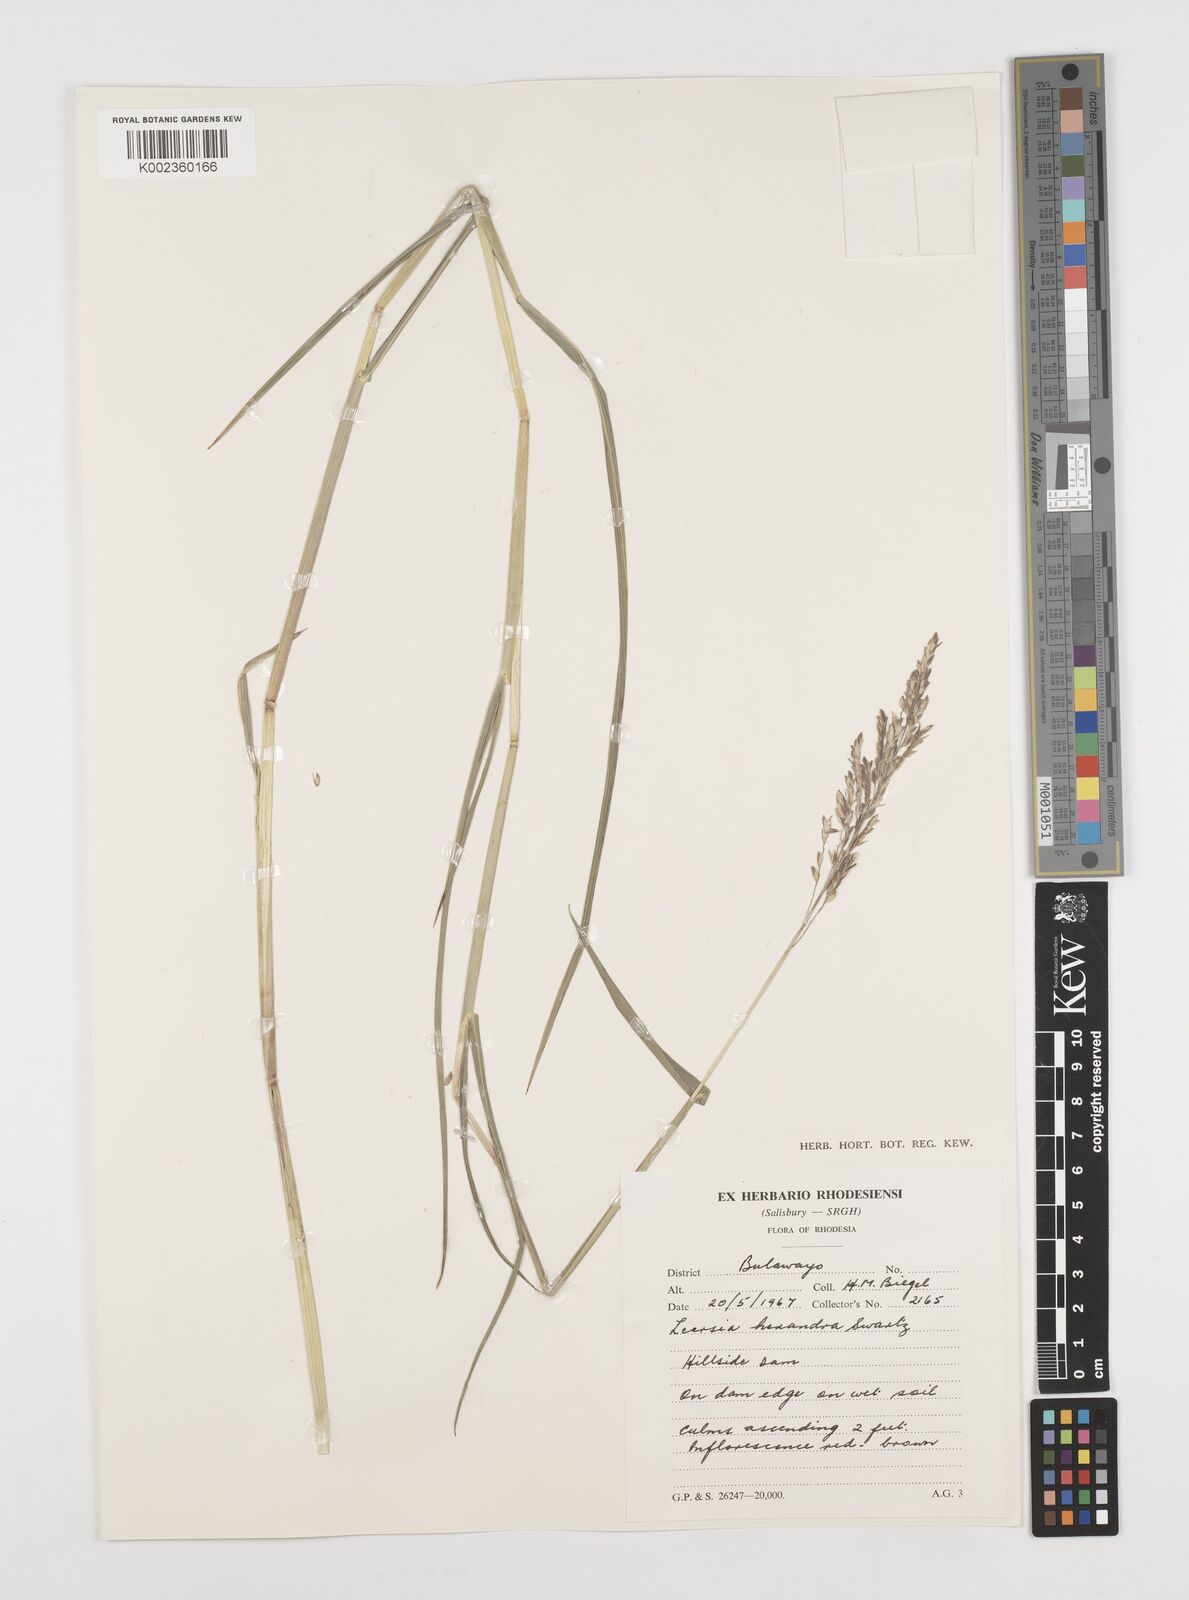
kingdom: Plantae
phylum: Tracheophyta
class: Liliopsida
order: Poales
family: Poaceae
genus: Leersia
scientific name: Leersia hexandra
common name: Southern cut grass
